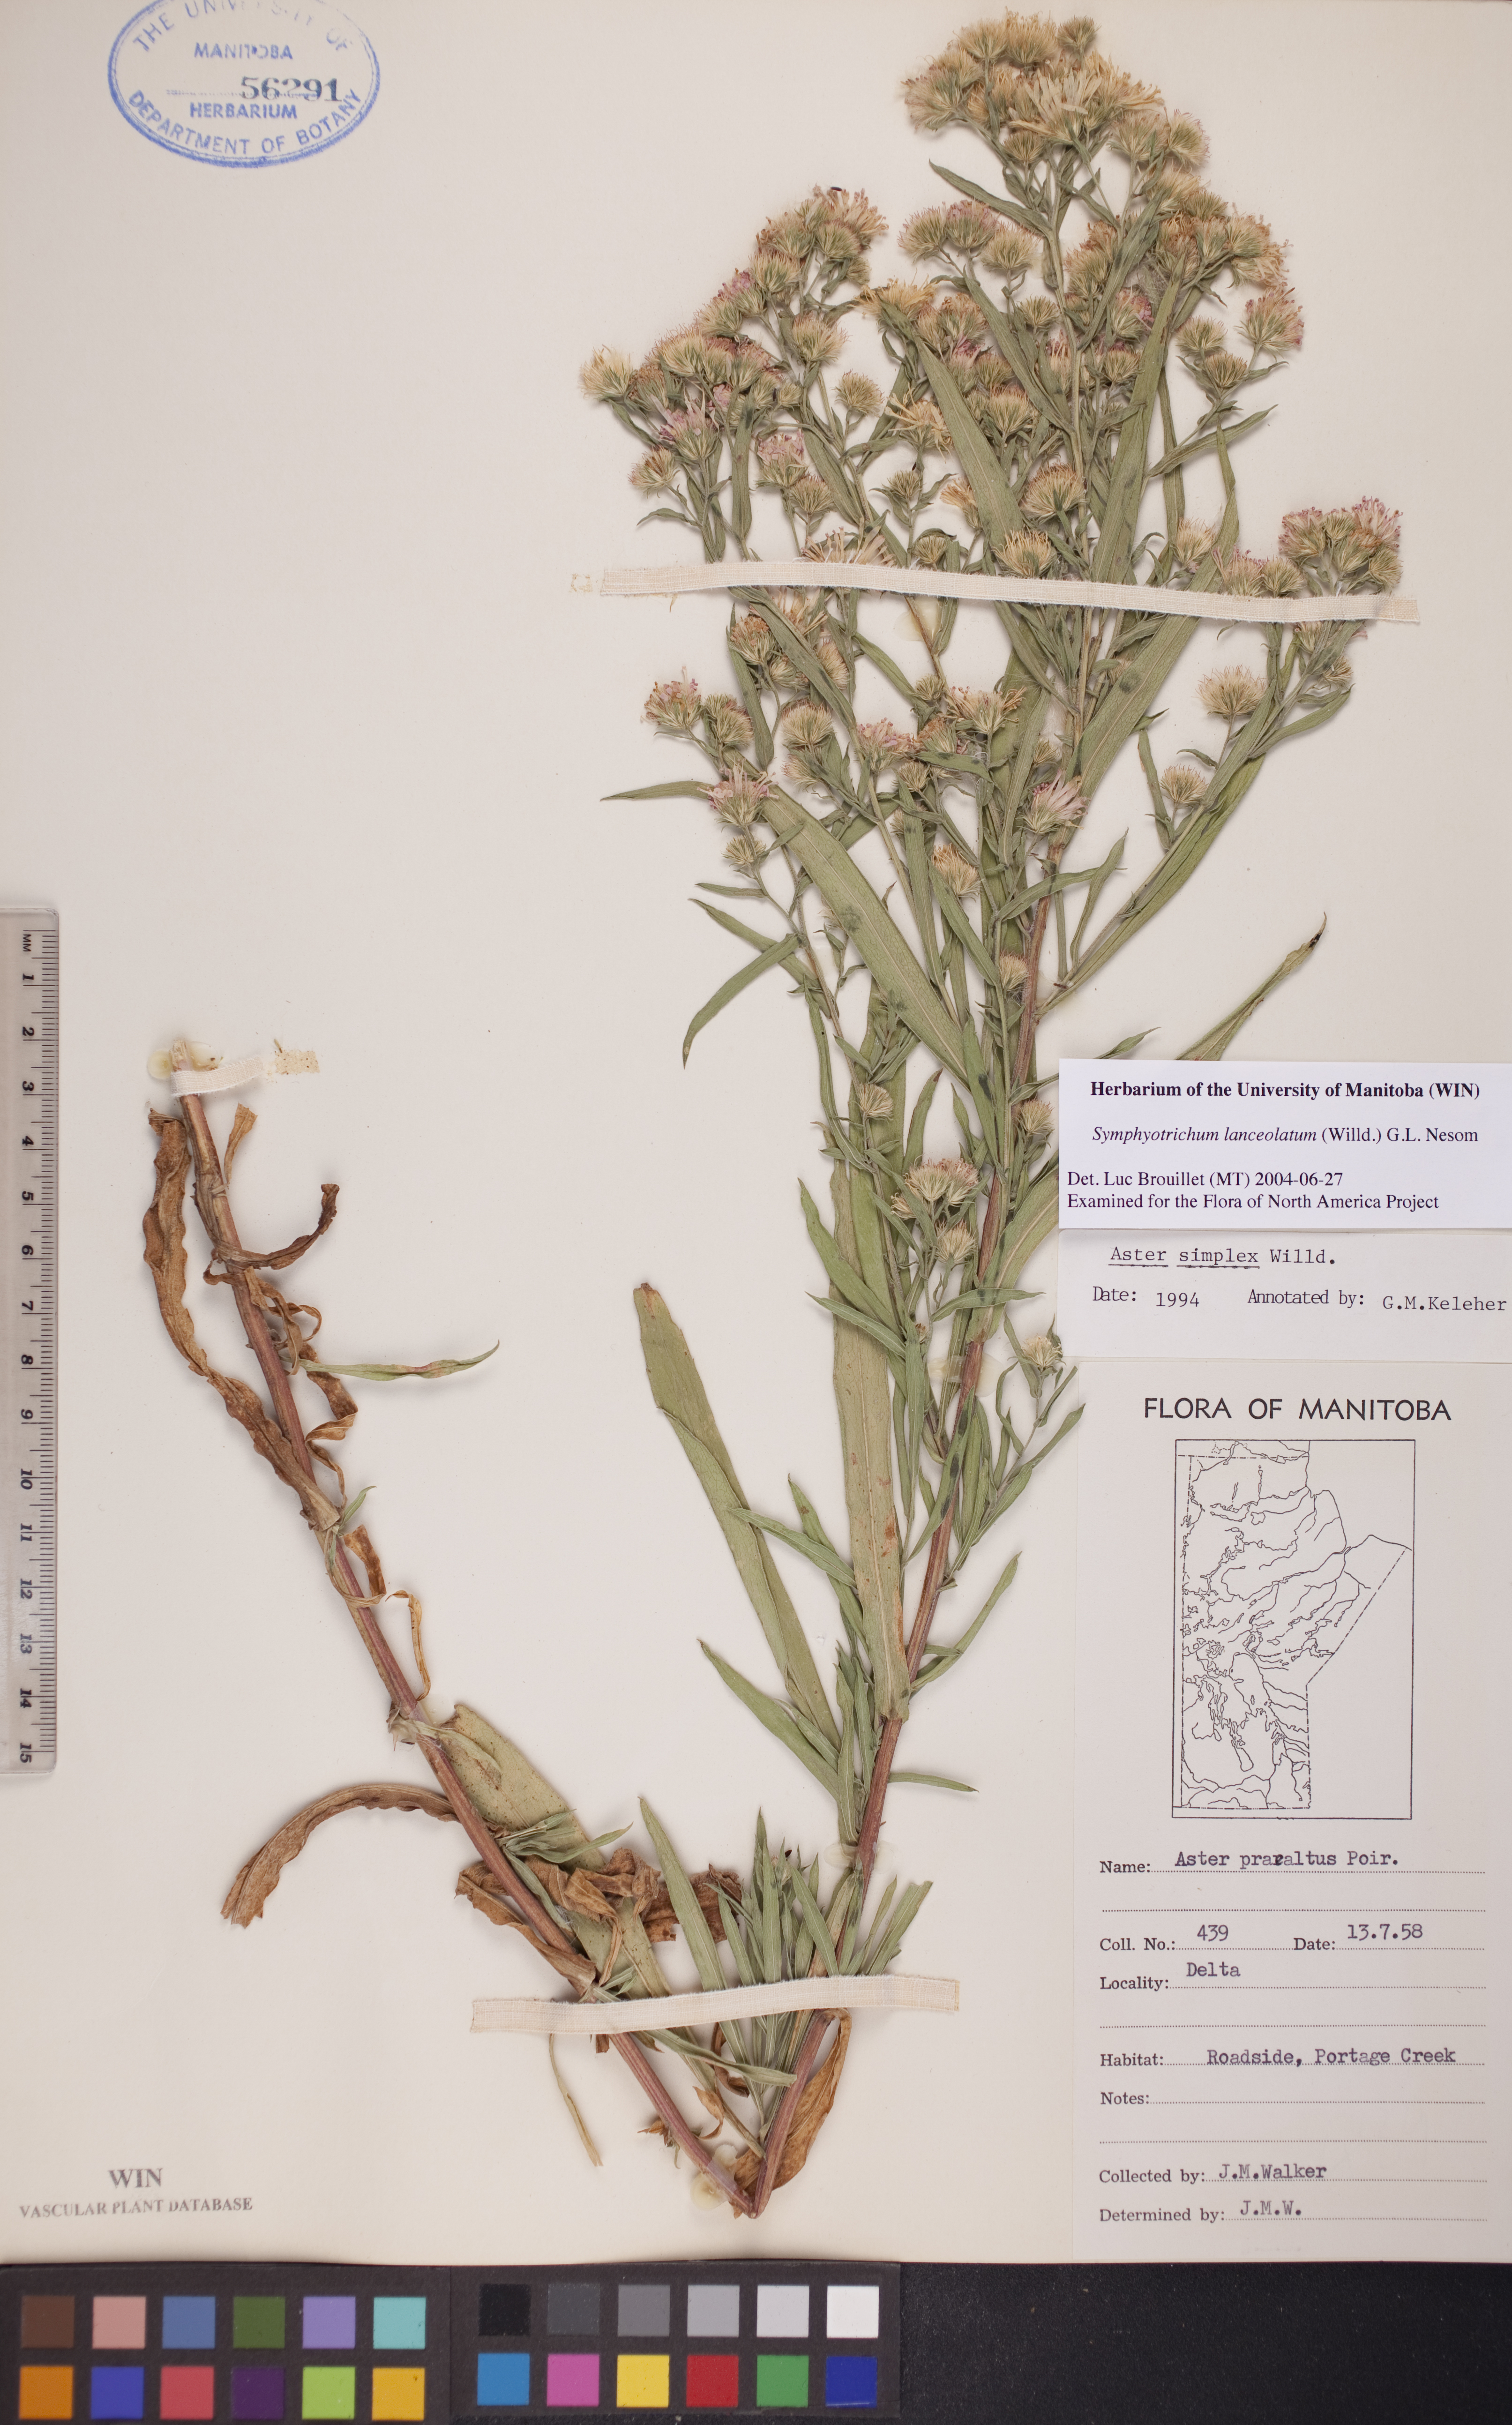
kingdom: Plantae
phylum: Tracheophyta
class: Magnoliopsida
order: Asterales
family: Asteraceae
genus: Symphyotrichum
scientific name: Symphyotrichum lanceolatum
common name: Panicled aster
